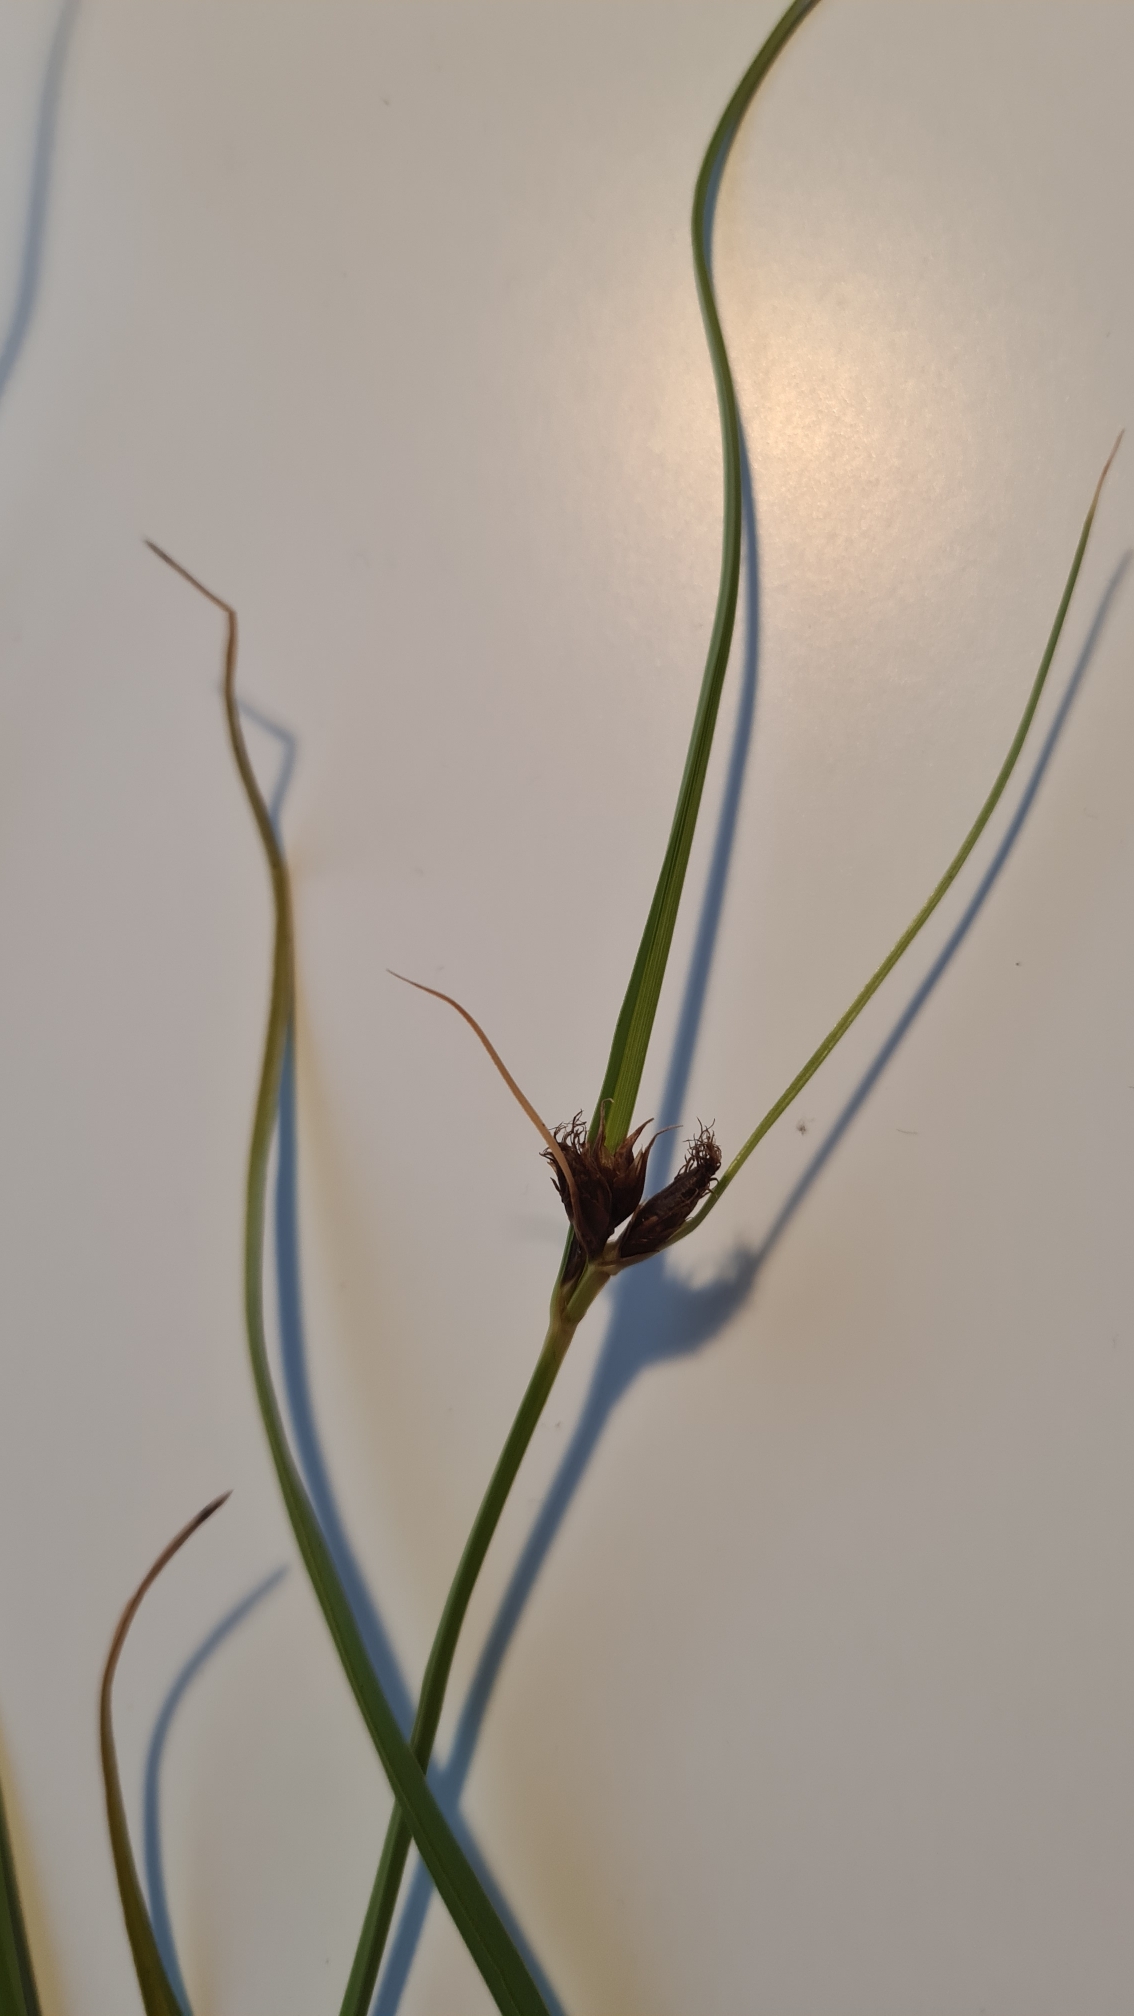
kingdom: Plantae
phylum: Tracheophyta
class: Liliopsida
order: Poales
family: Cyperaceae
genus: Bolboschoenus
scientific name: Bolboschoenus maritimus
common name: Strand-kogleaks
